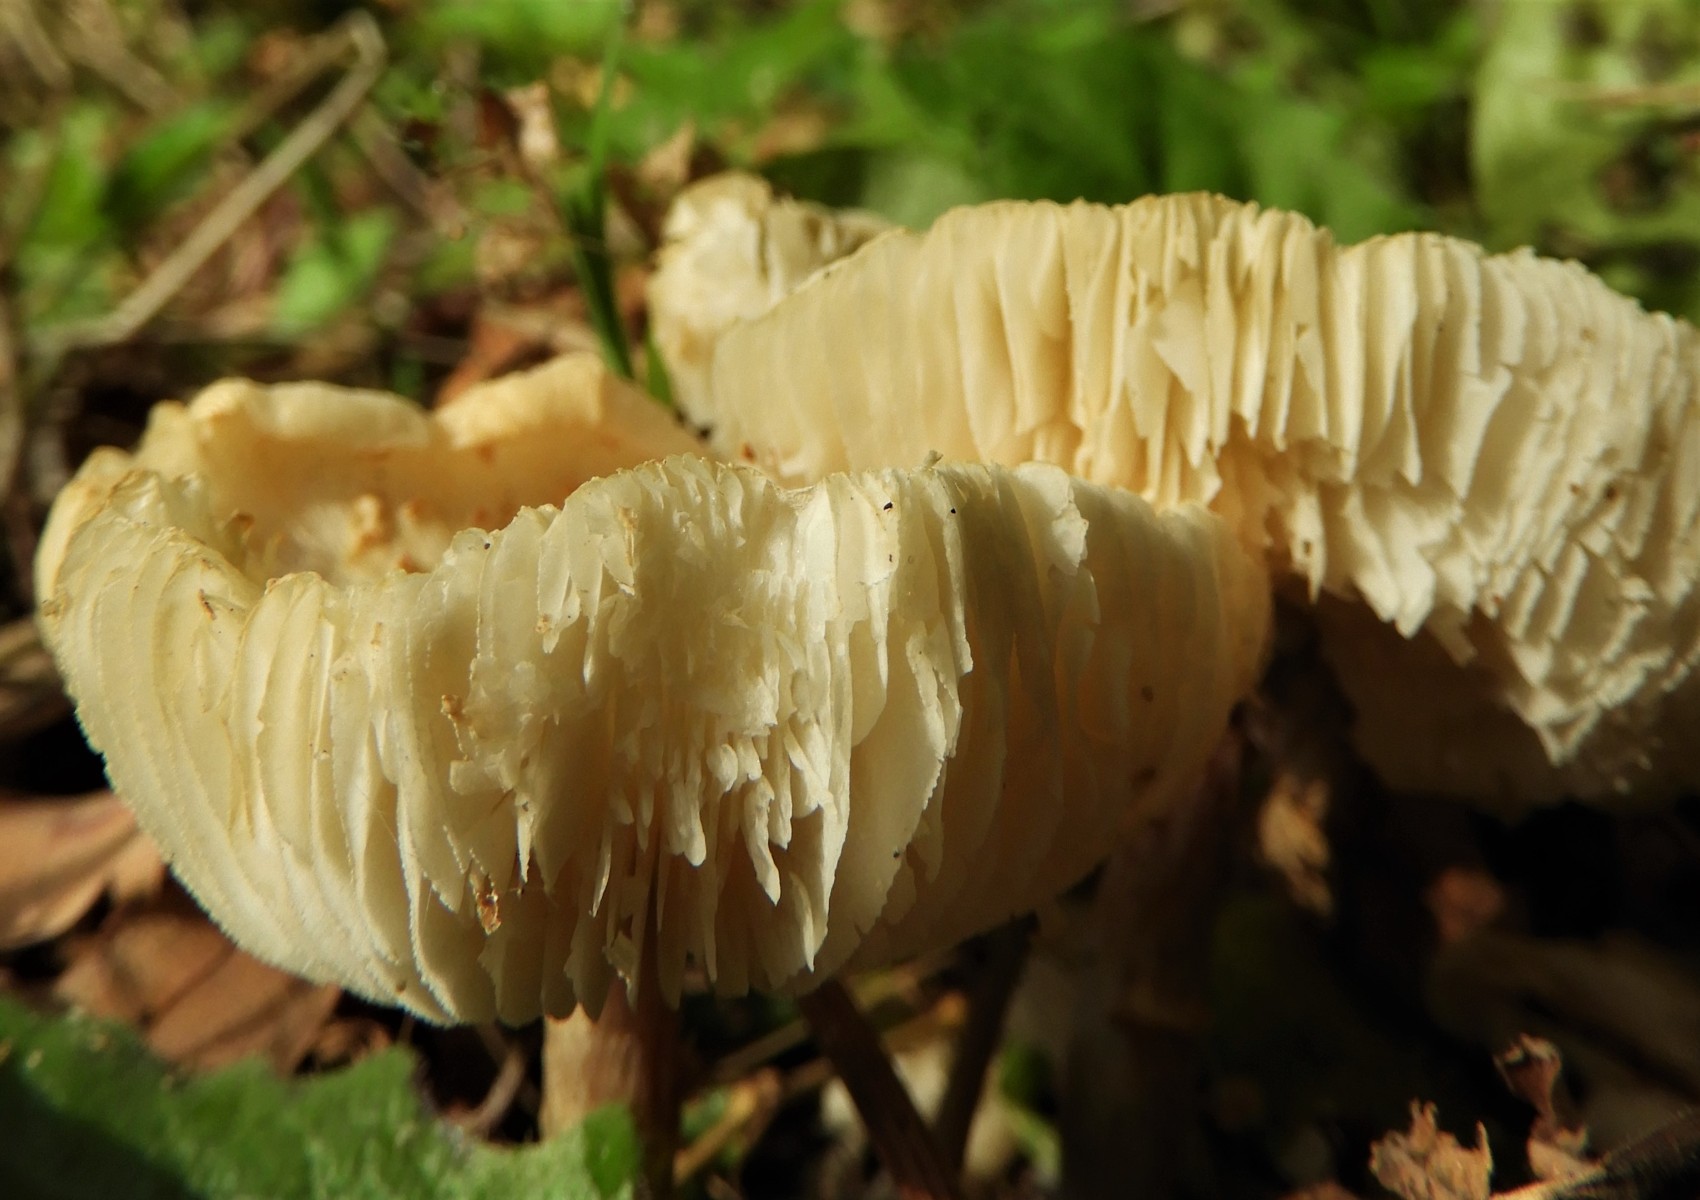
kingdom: Fungi
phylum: Basidiomycota
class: Agaricomycetes
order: Agaricales
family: Agaricaceae
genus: Lepiota
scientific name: Lepiota cristata
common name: stinkende parasolhat
